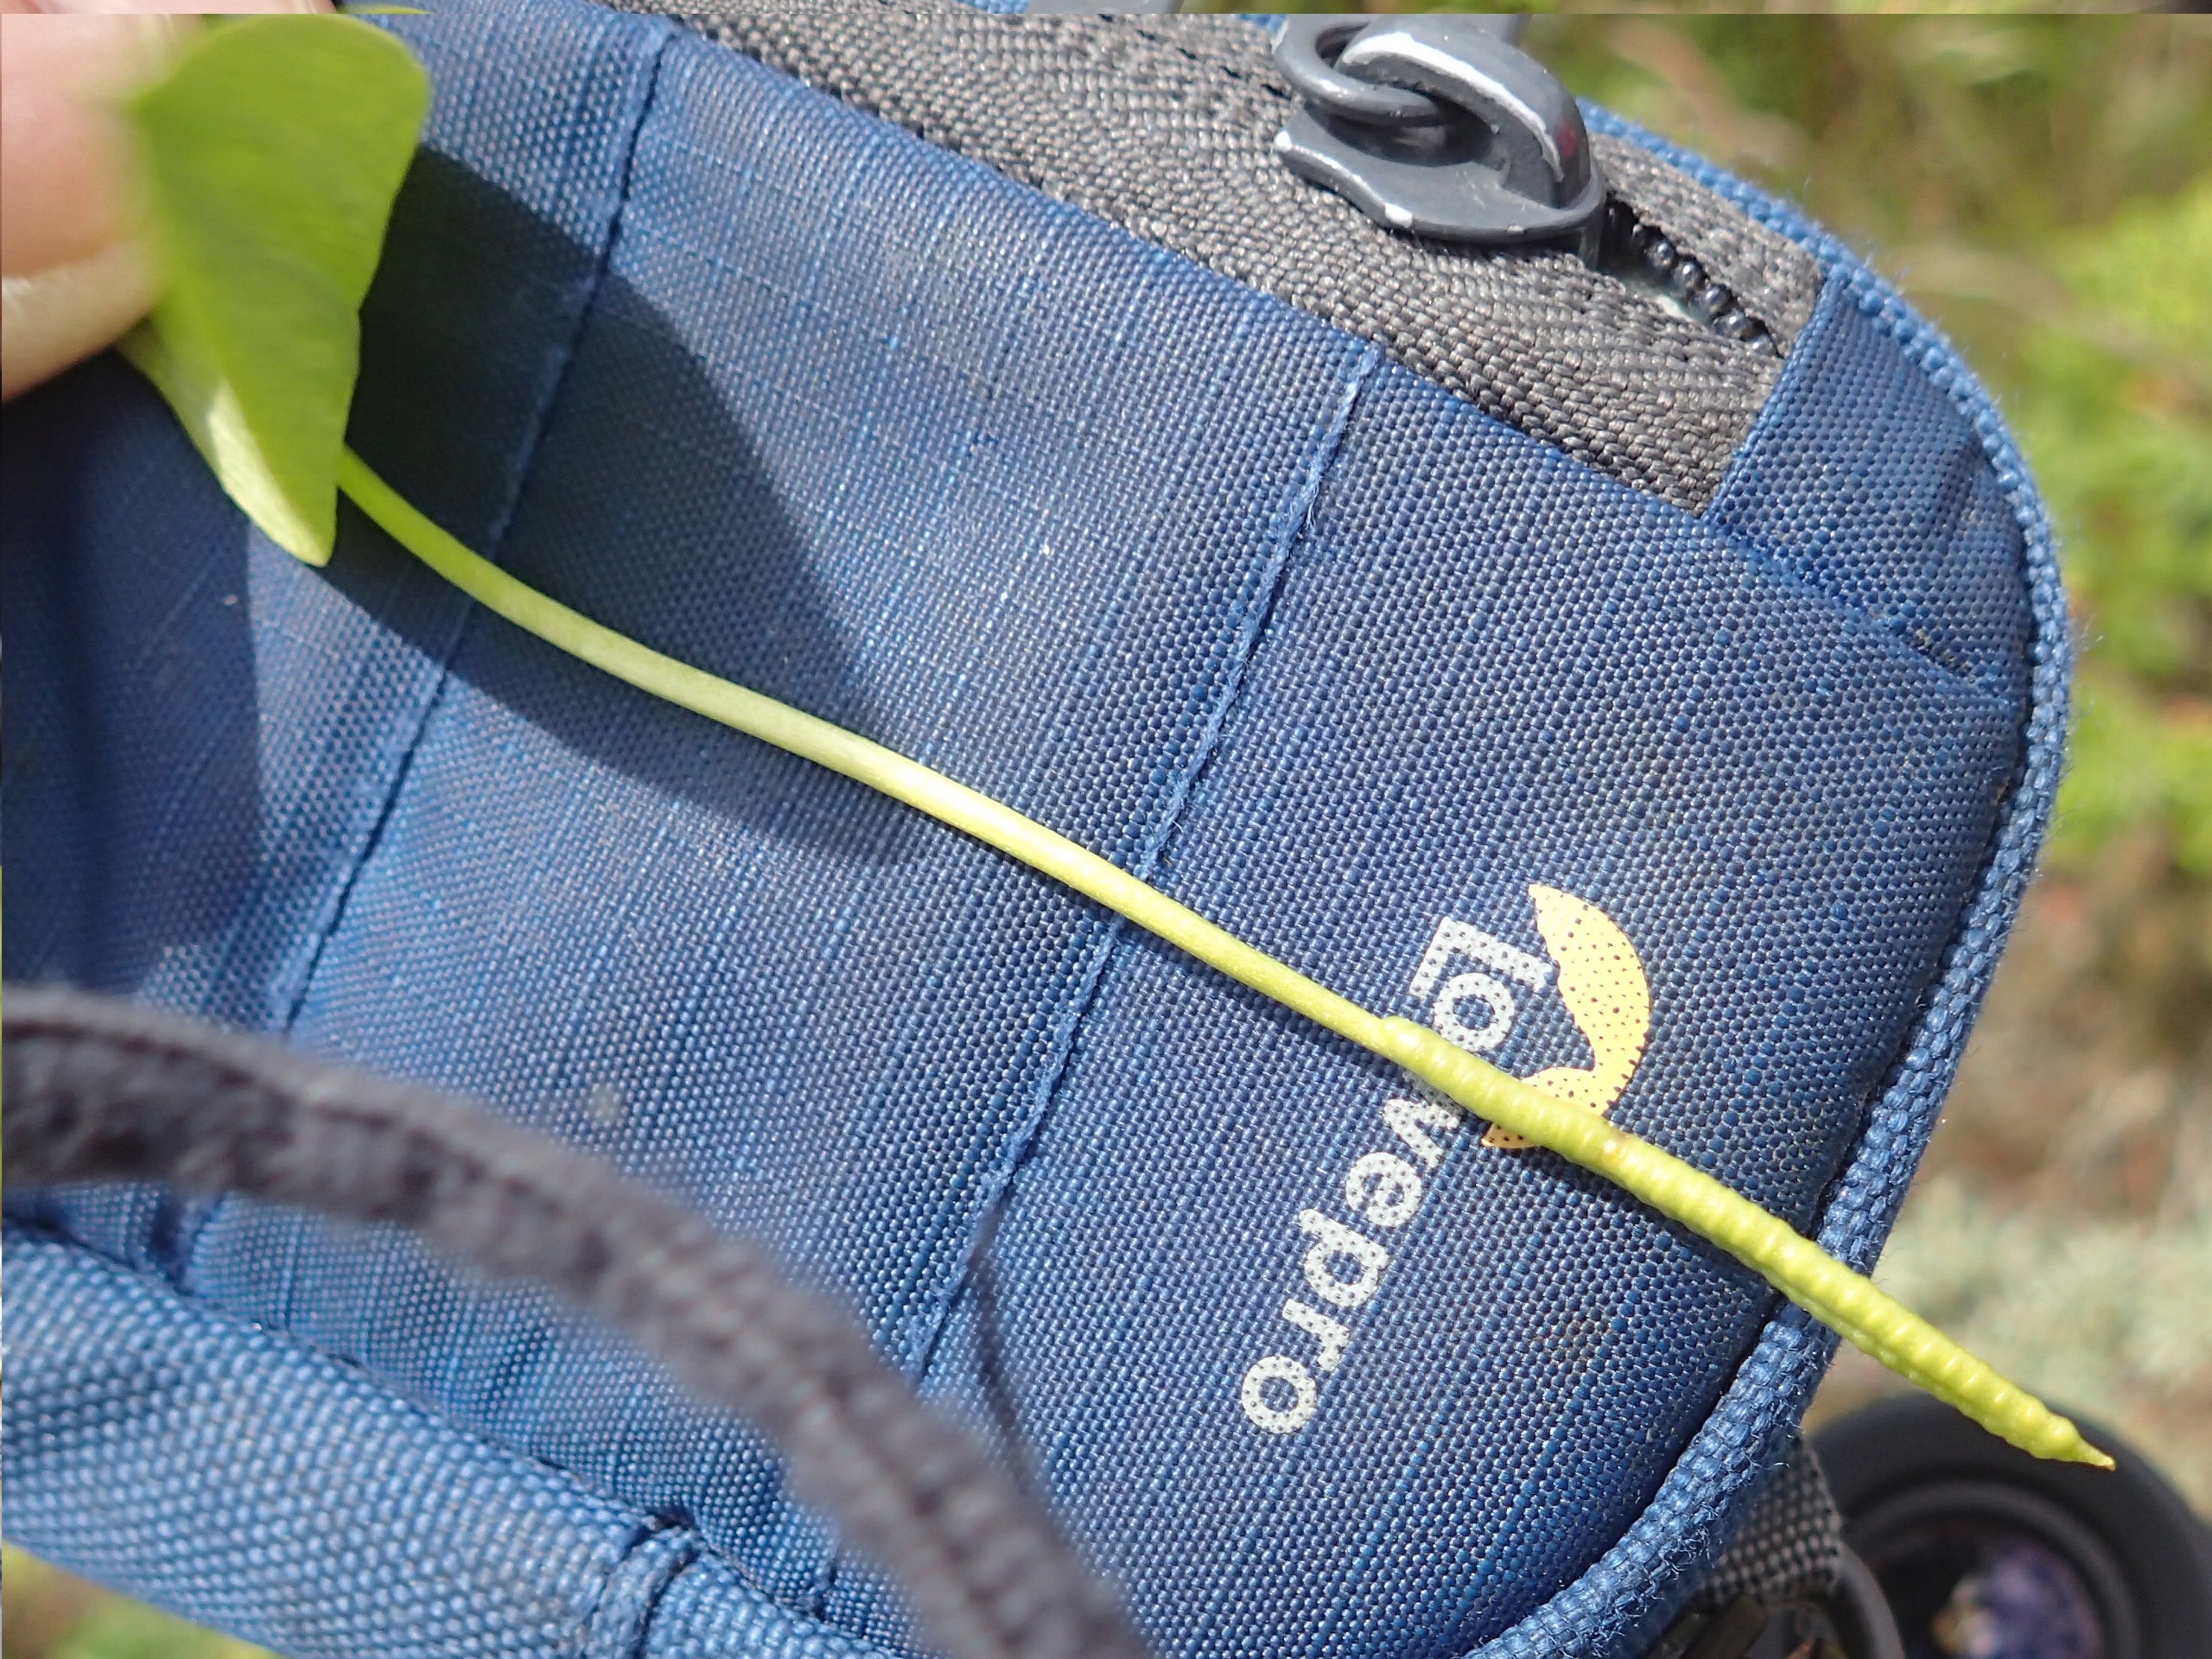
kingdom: Plantae
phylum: Tracheophyta
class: Polypodiopsida
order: Ophioglossales
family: Ophioglossaceae
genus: Ophioglossum
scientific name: Ophioglossum vulgatum
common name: Slangetunge
